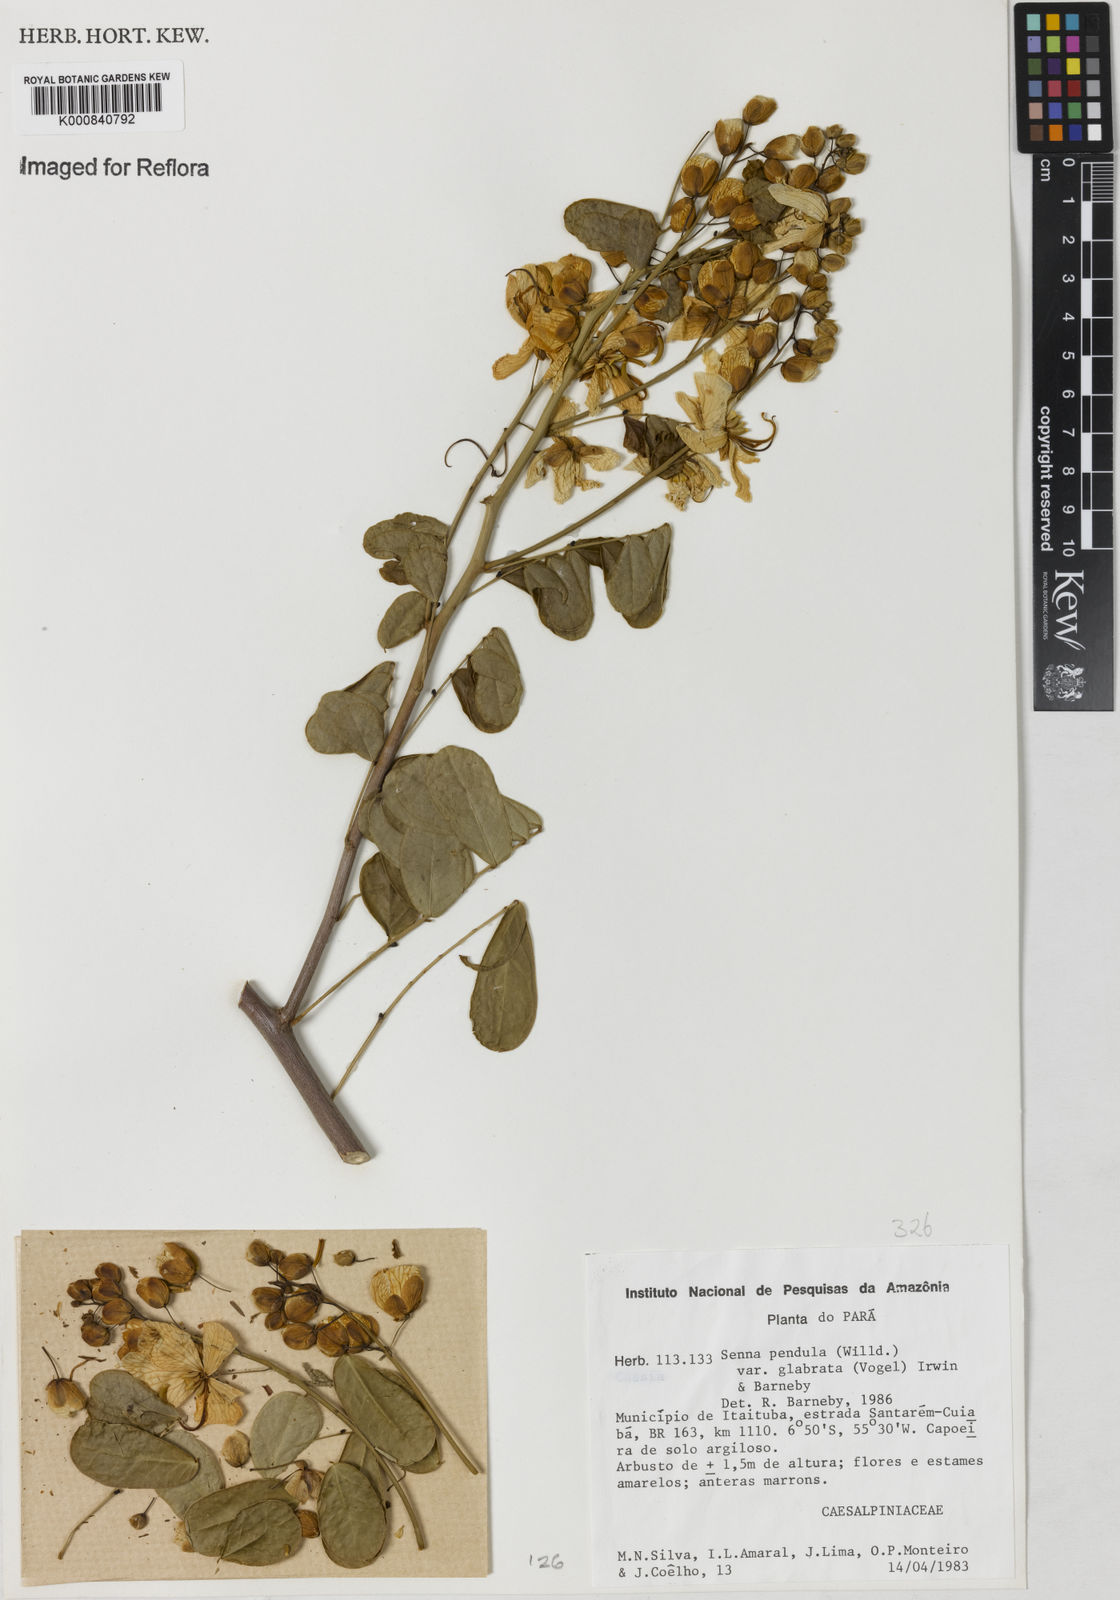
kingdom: Plantae
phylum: Tracheophyta
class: Magnoliopsida
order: Fabales
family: Fabaceae
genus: Senna
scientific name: Senna pendula
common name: Easter cassia
